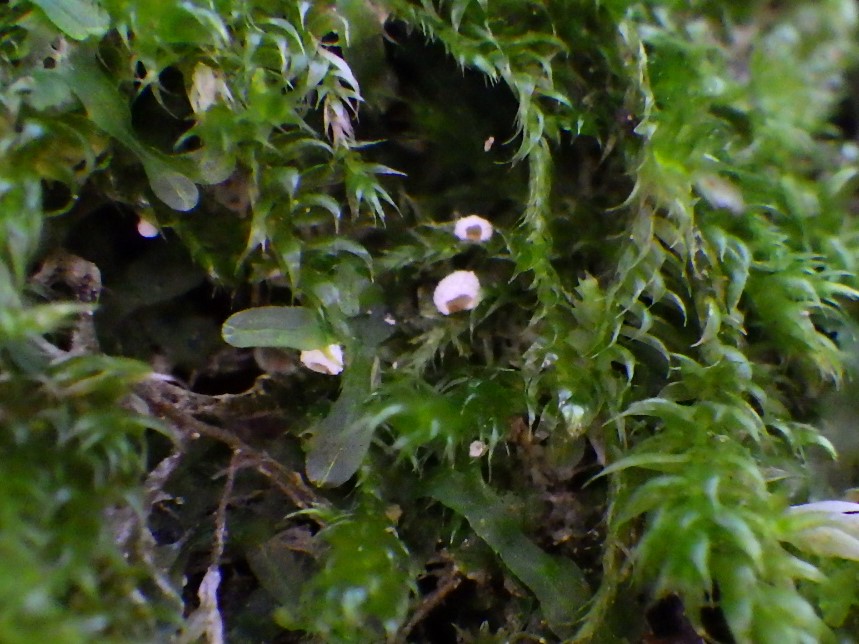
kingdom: Fungi
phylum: Basidiomycota
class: Agaricomycetes
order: Agaricales
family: Chromocyphellaceae
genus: Chromocyphella
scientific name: Chromocyphella muscicola
